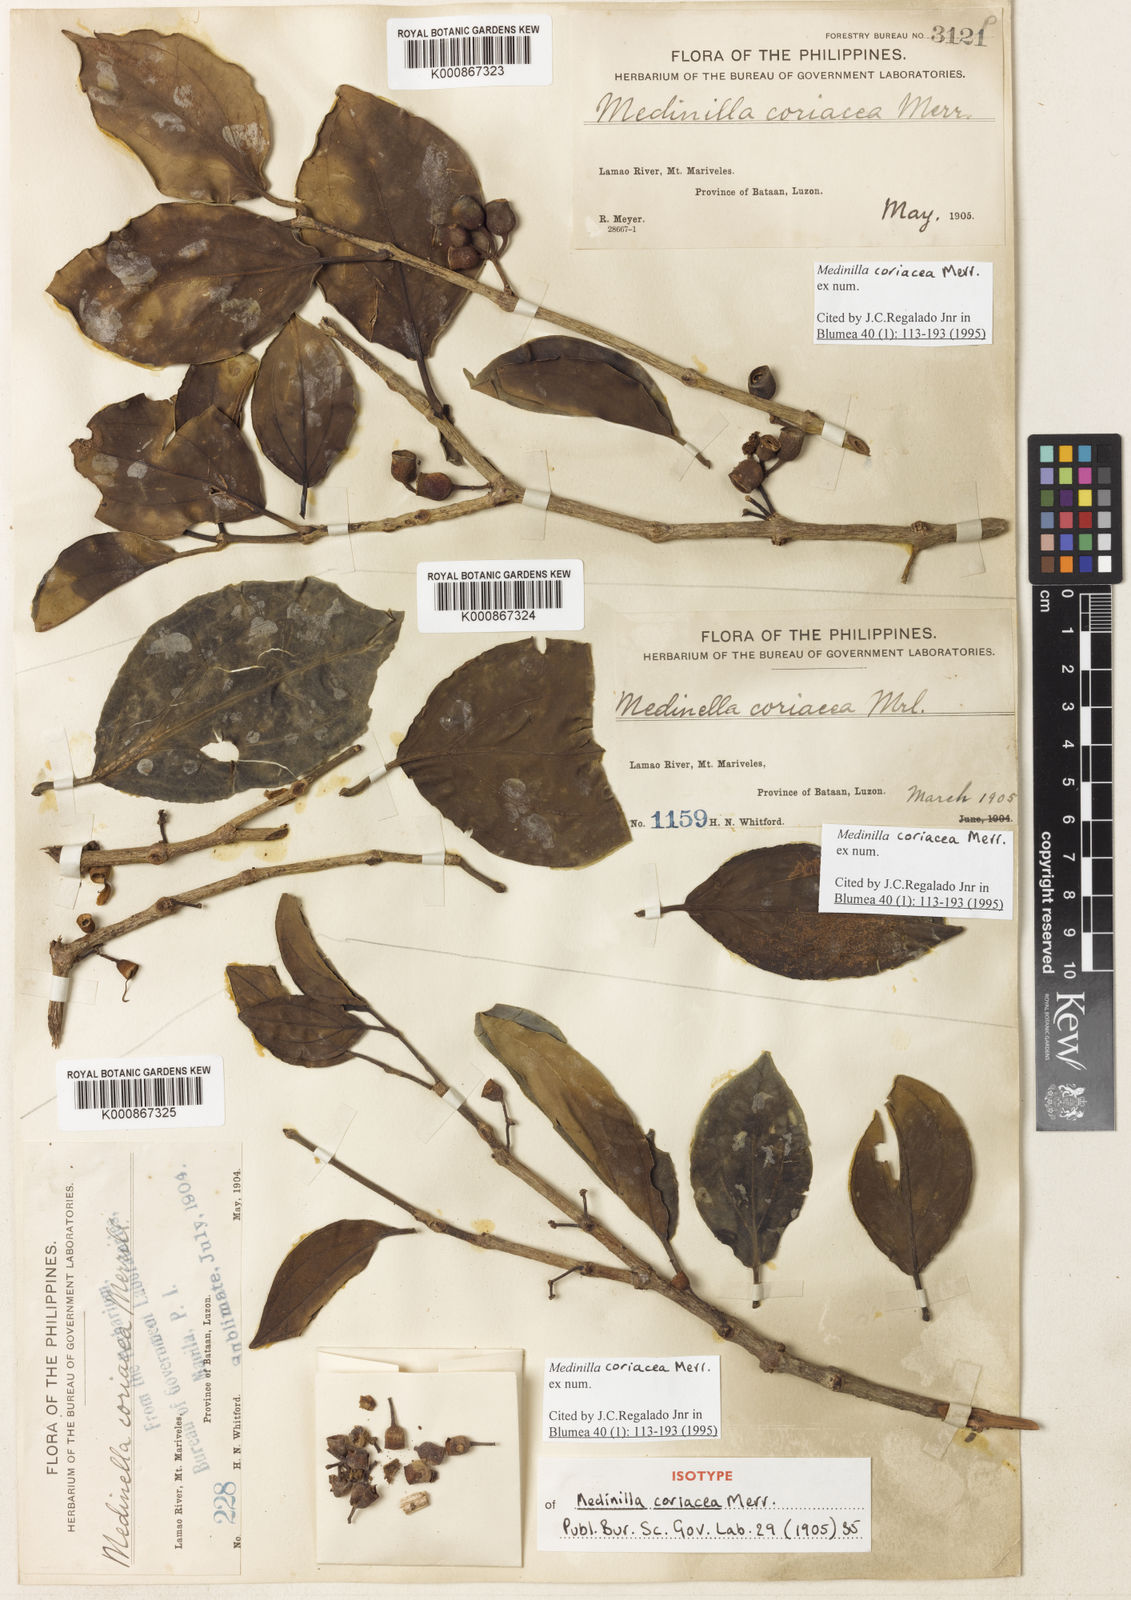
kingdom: Plantae
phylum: Tracheophyta
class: Magnoliopsida
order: Myrtales
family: Melastomataceae
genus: Medinilla
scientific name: Medinilla coriacea
